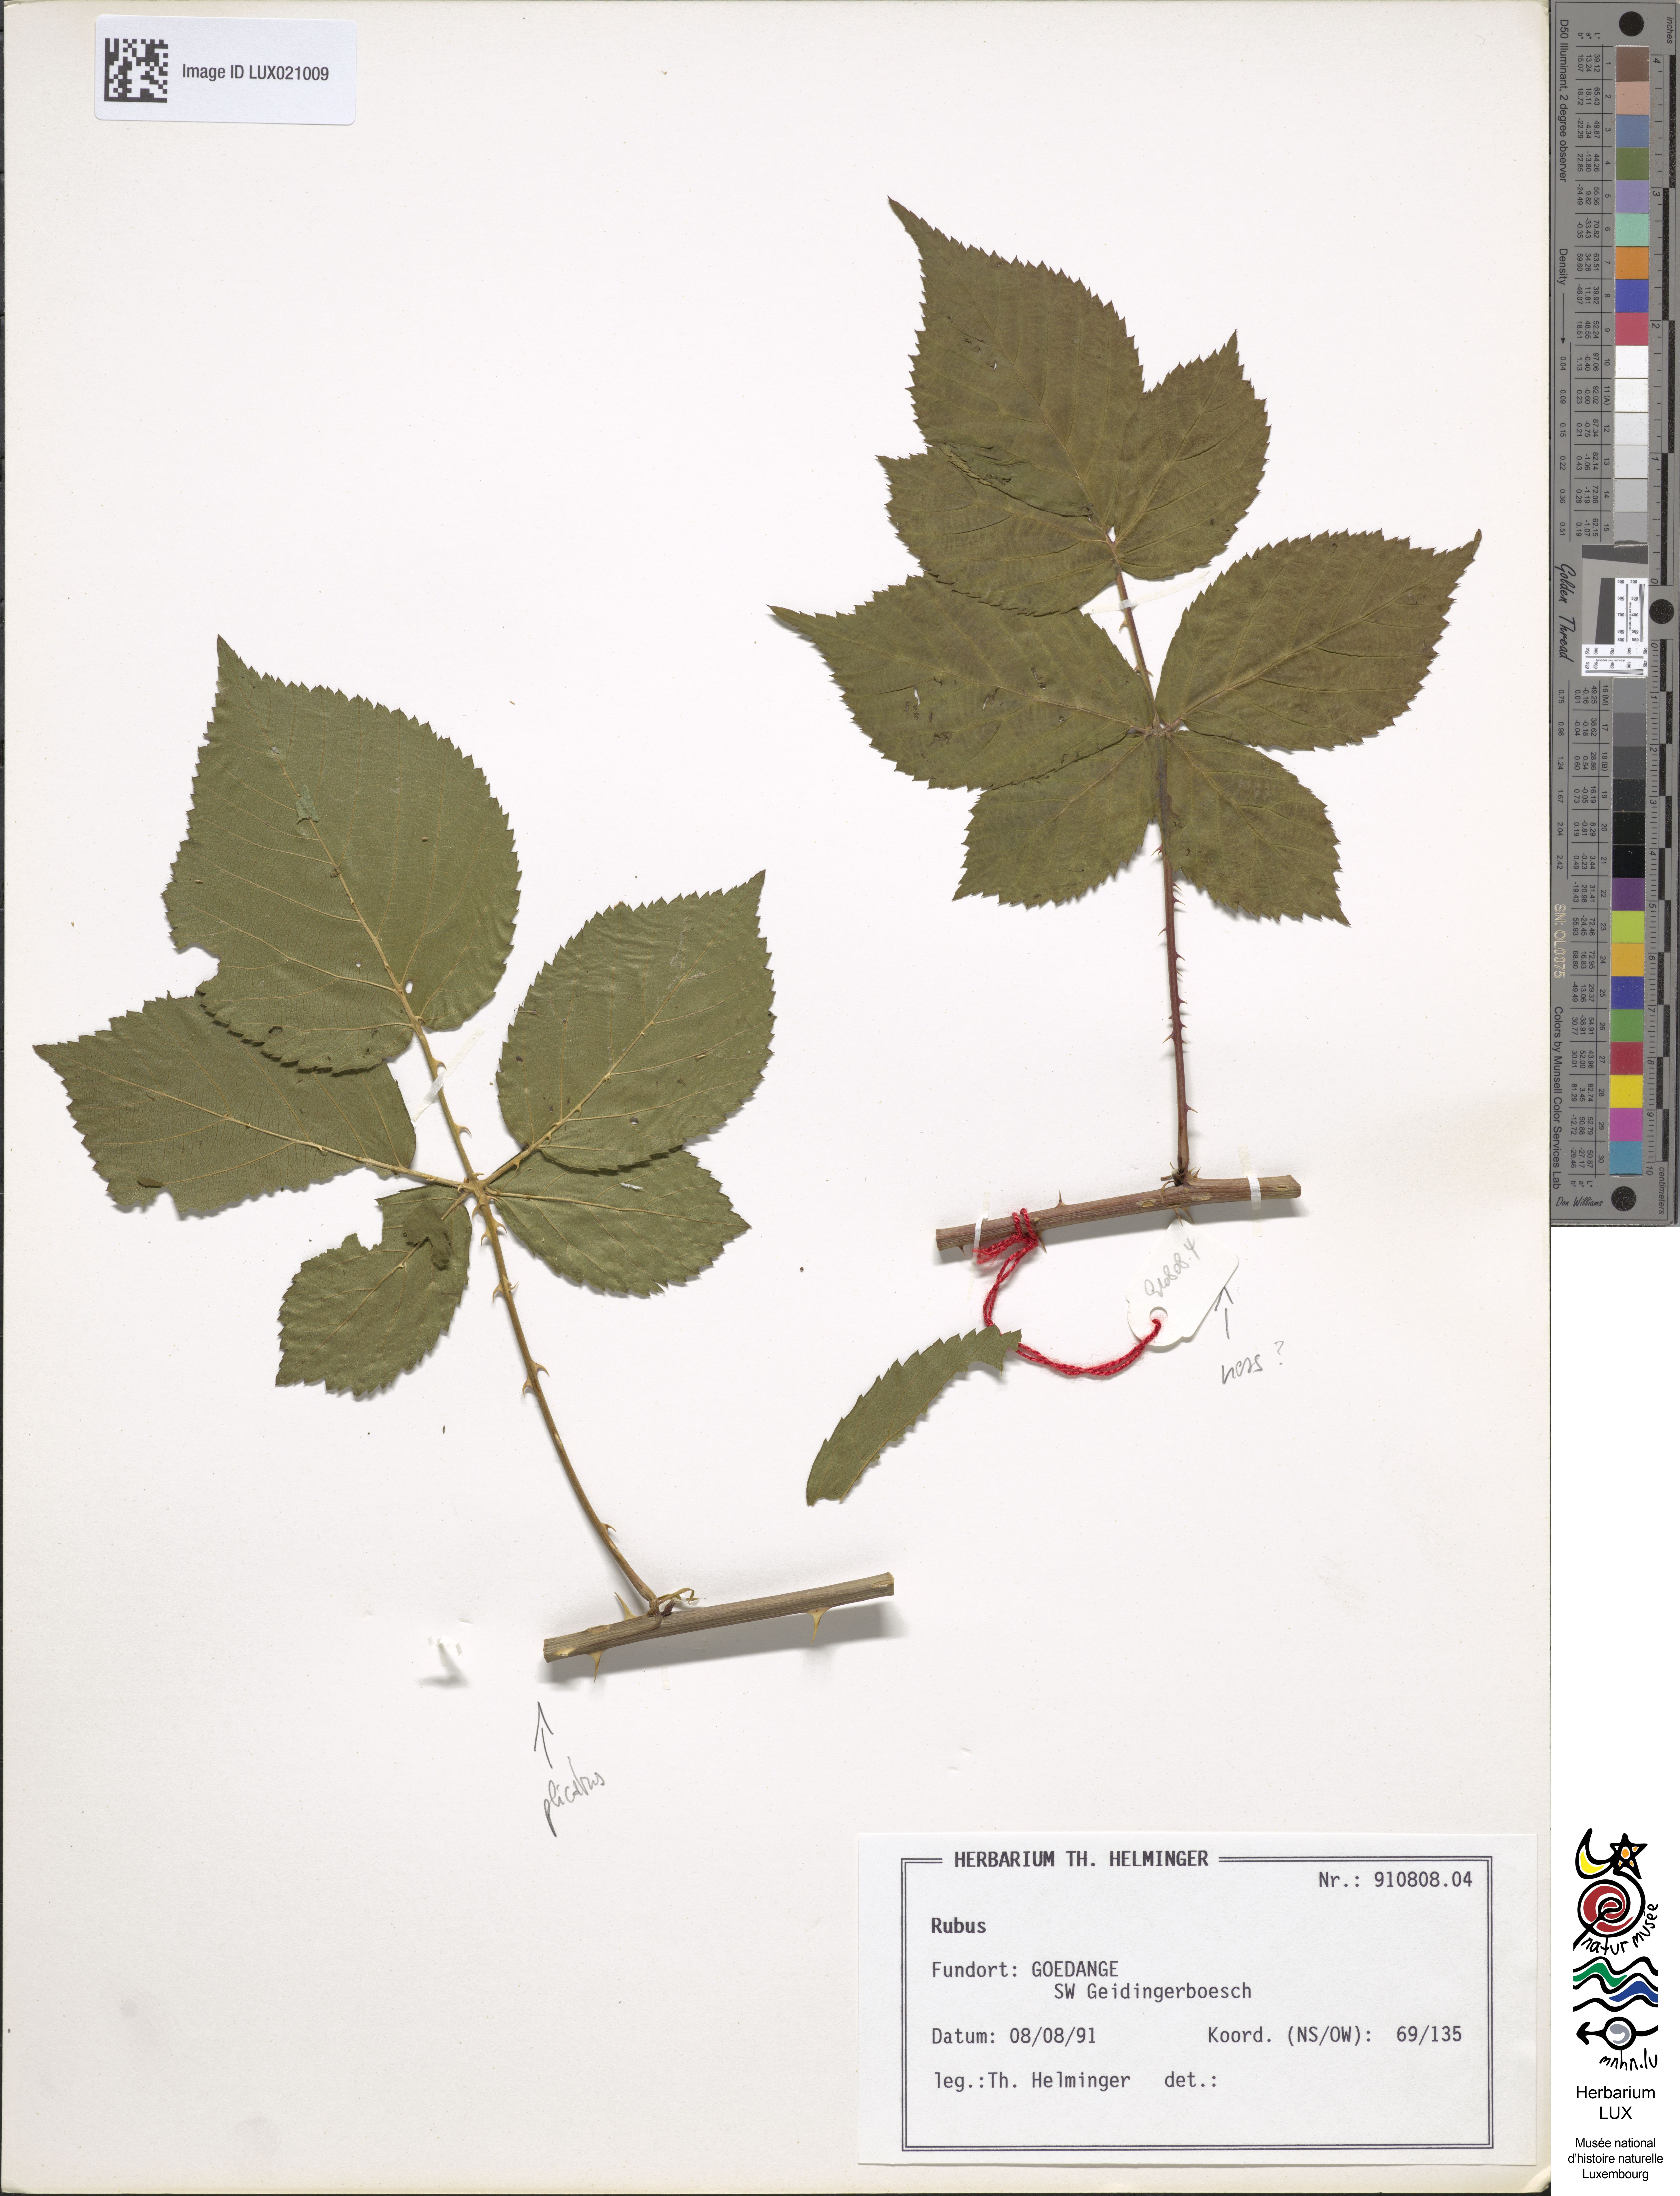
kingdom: Plantae
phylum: Tracheophyta
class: Magnoliopsida
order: Rosales
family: Rosaceae
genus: Rubus
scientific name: Rubus
